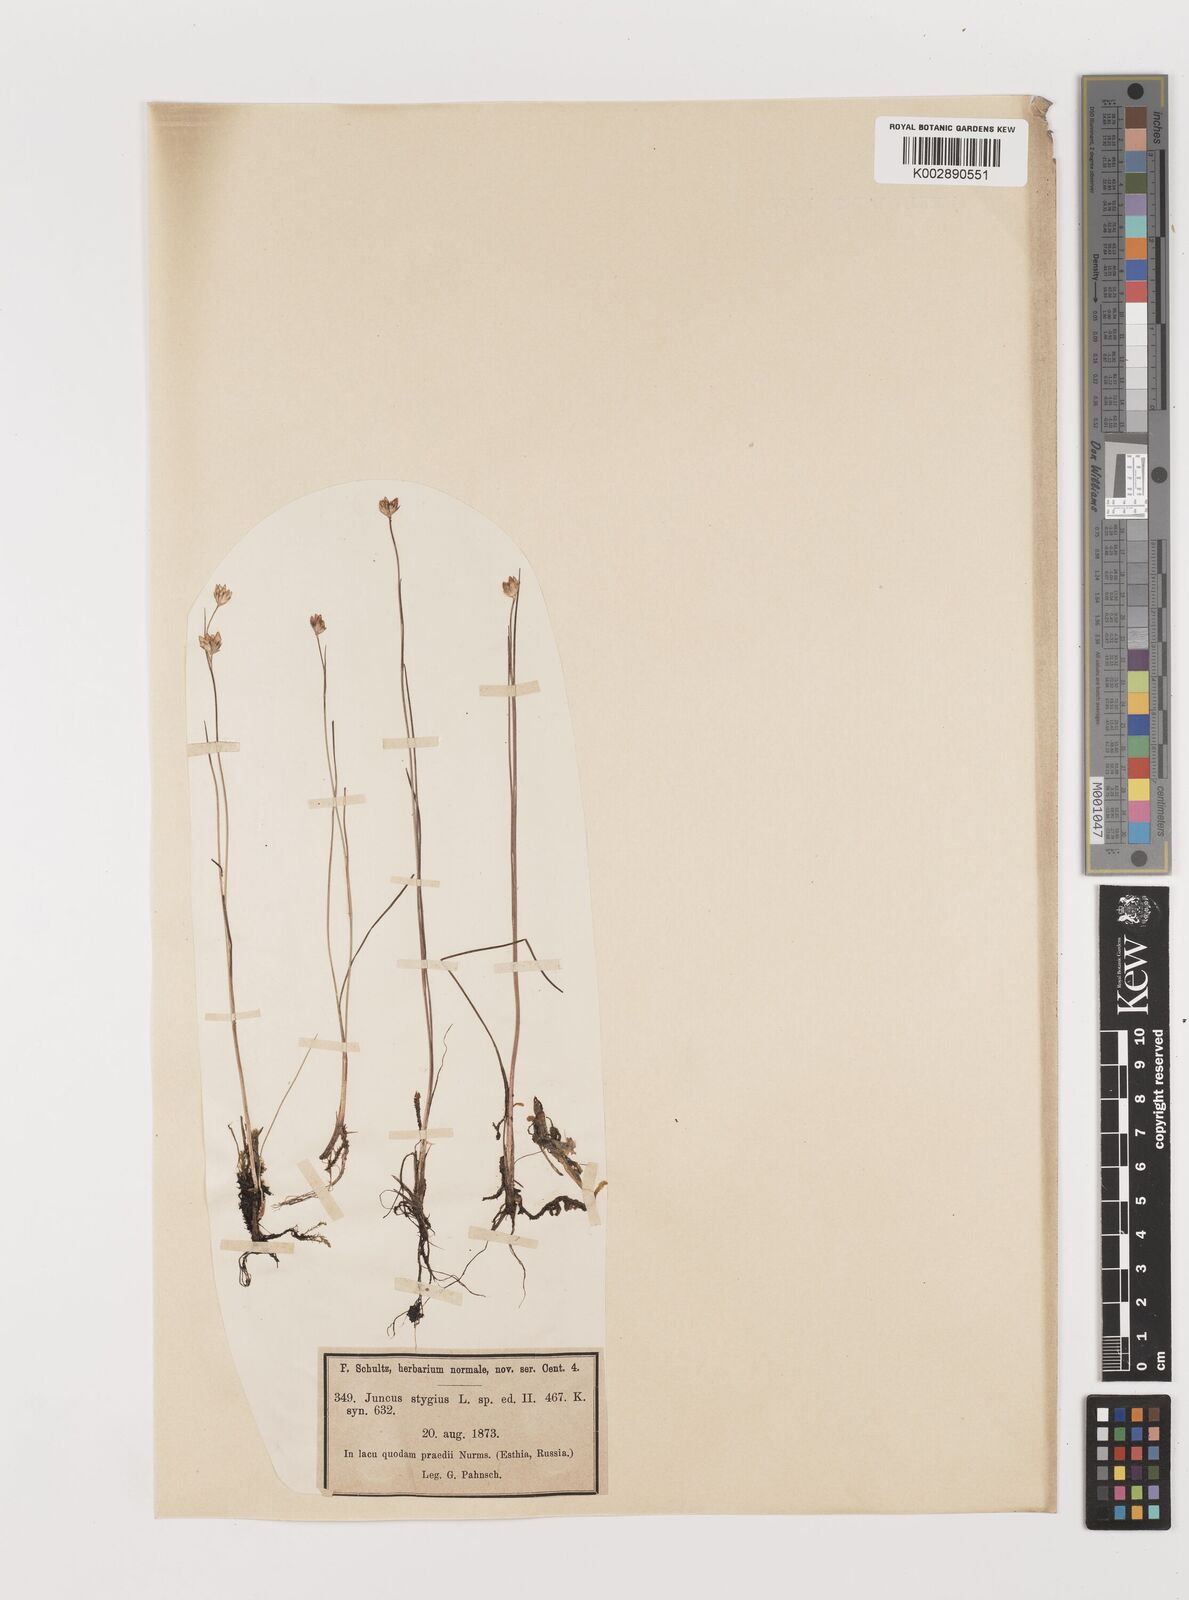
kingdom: Plantae
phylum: Tracheophyta
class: Liliopsida
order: Poales
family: Juncaceae
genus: Juncus
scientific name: Juncus stygius
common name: Bog rush
